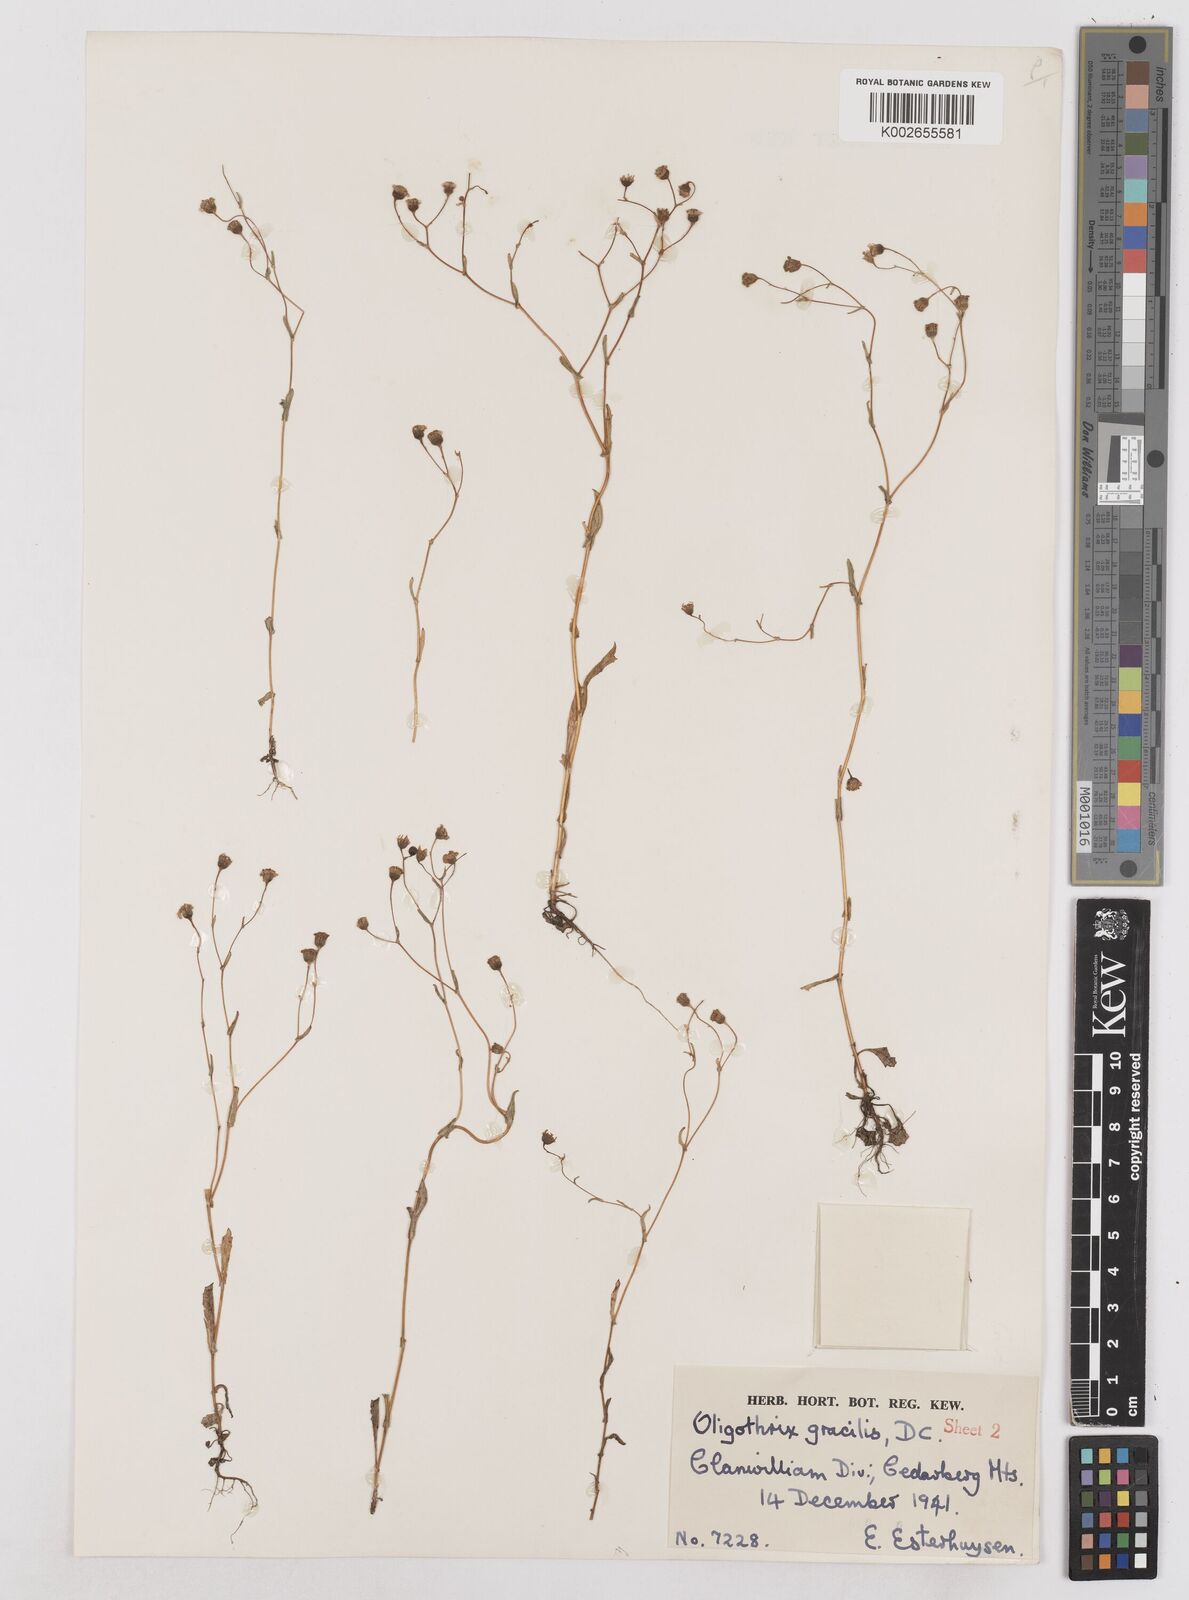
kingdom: Plantae
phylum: Tracheophyta
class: Magnoliopsida
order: Asterales
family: Asteraceae
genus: Oligothrix
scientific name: Oligothrix gracilis
